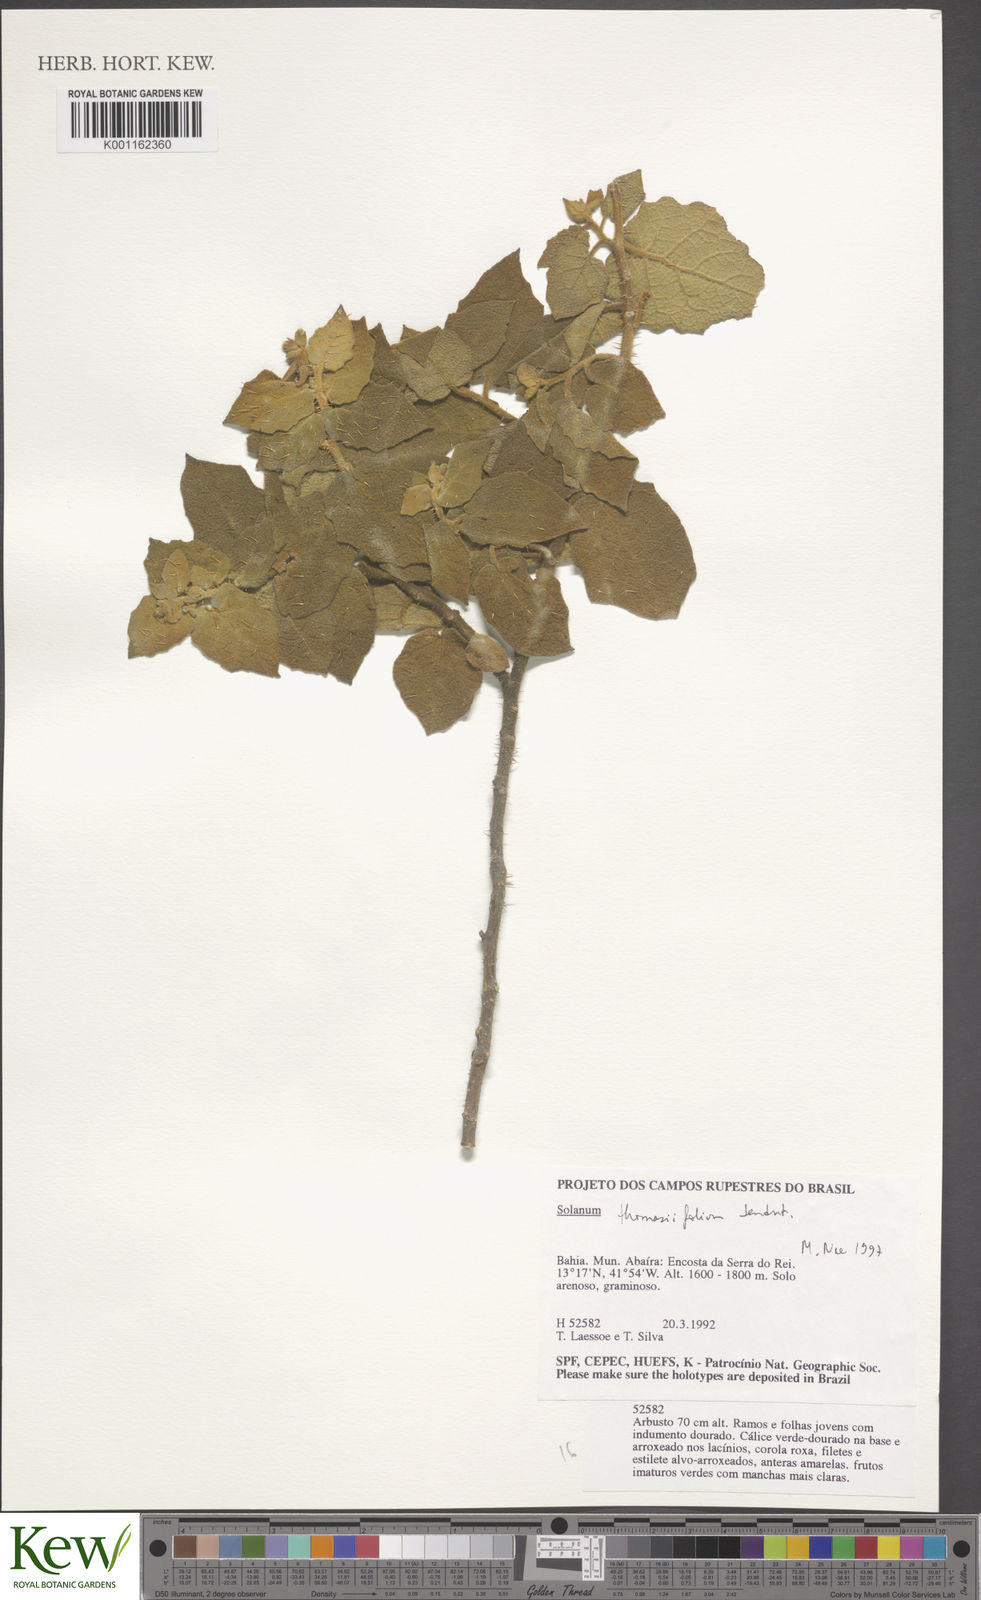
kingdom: Plantae
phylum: Tracheophyta
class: Magnoliopsida
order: Solanales
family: Solanaceae
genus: Solanum
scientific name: Solanum thomasiifolium
